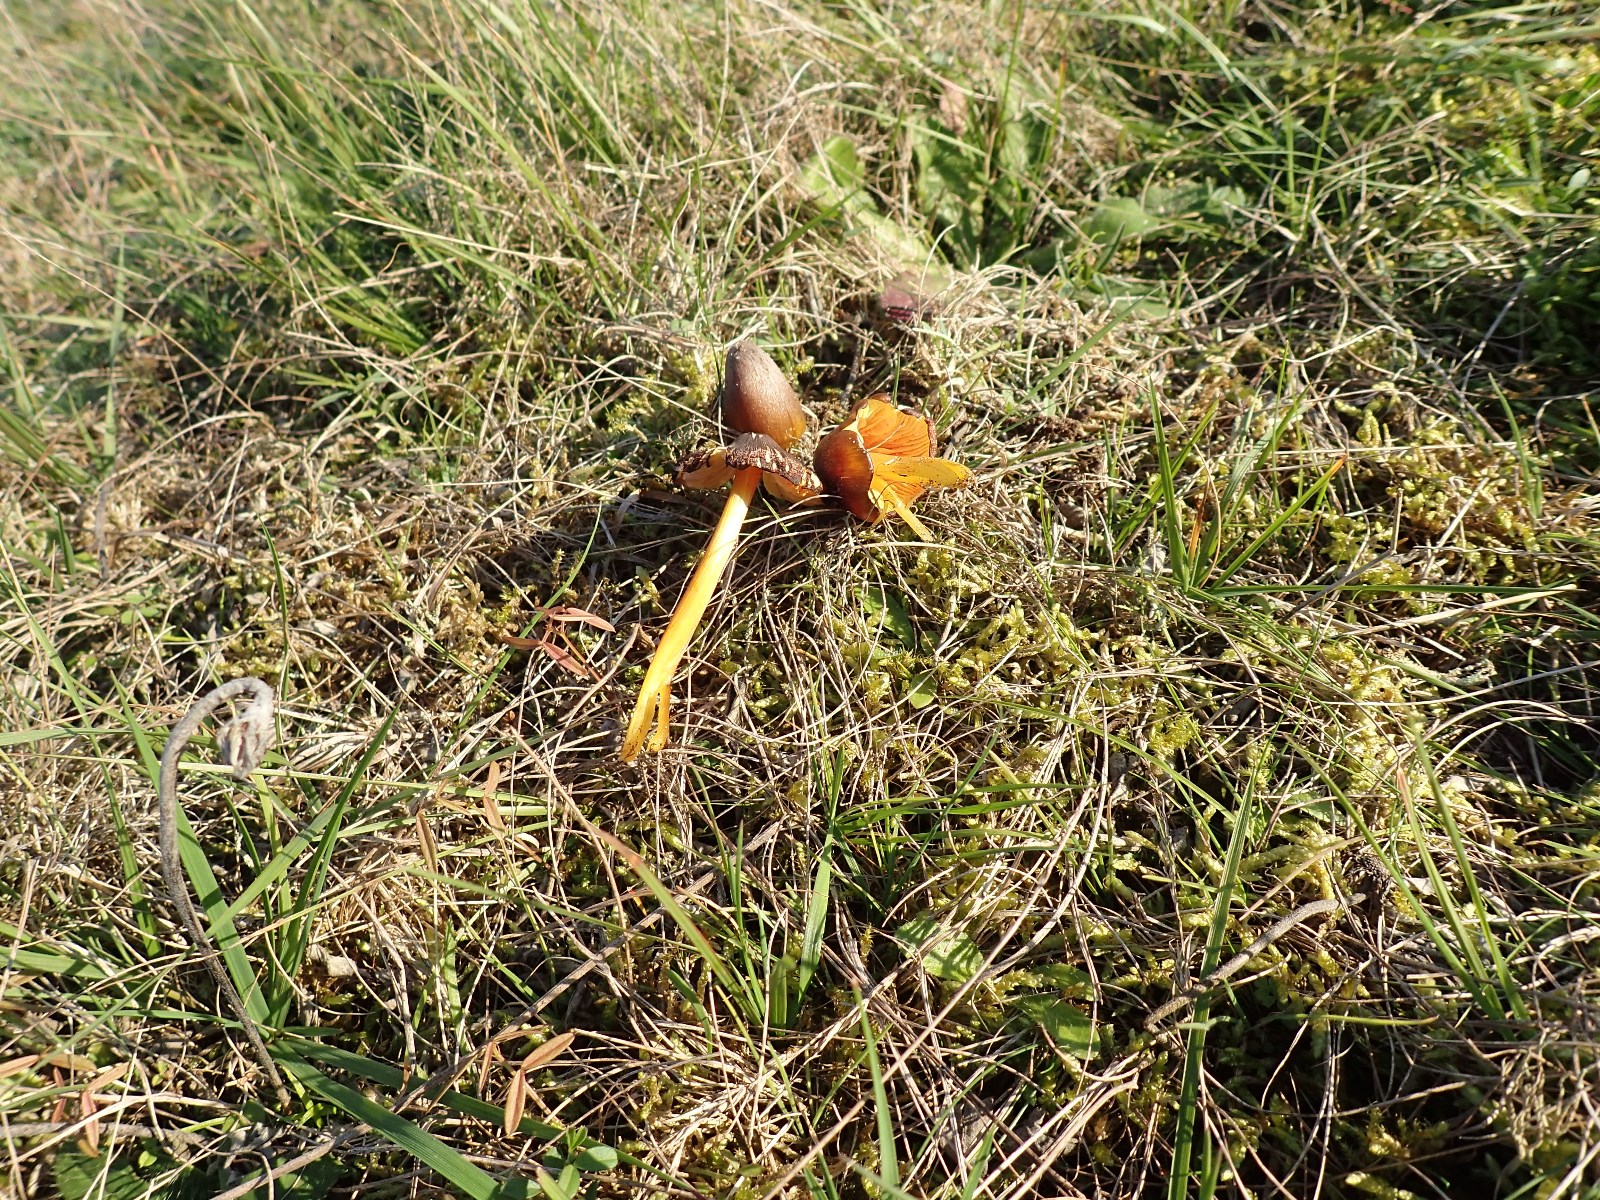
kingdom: Fungi
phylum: Basidiomycota
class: Agaricomycetes
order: Agaricales
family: Hygrophoraceae
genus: Hygrocybe
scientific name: Hygrocybe spadicea
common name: daddelbrun vokshat
